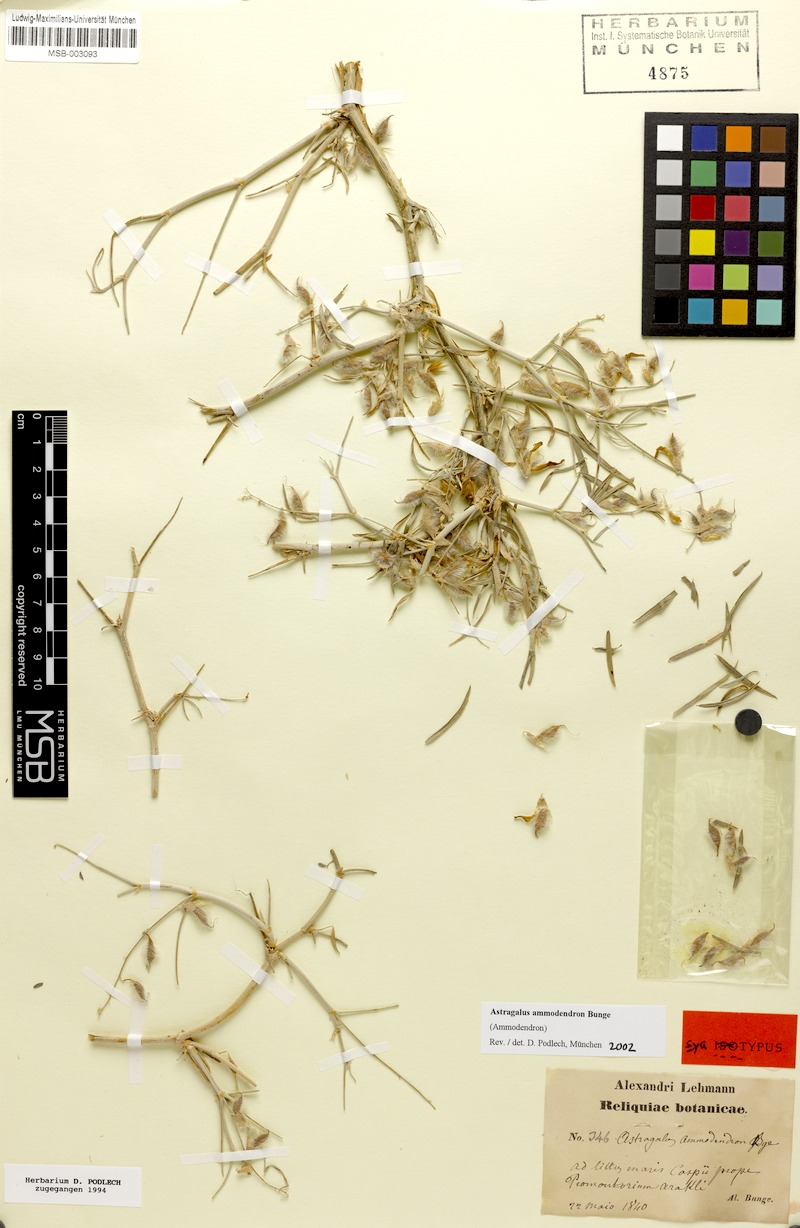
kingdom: Plantae
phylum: Tracheophyta
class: Magnoliopsida
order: Fabales
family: Fabaceae
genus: Astragalus
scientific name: Astragalus ammodendron
